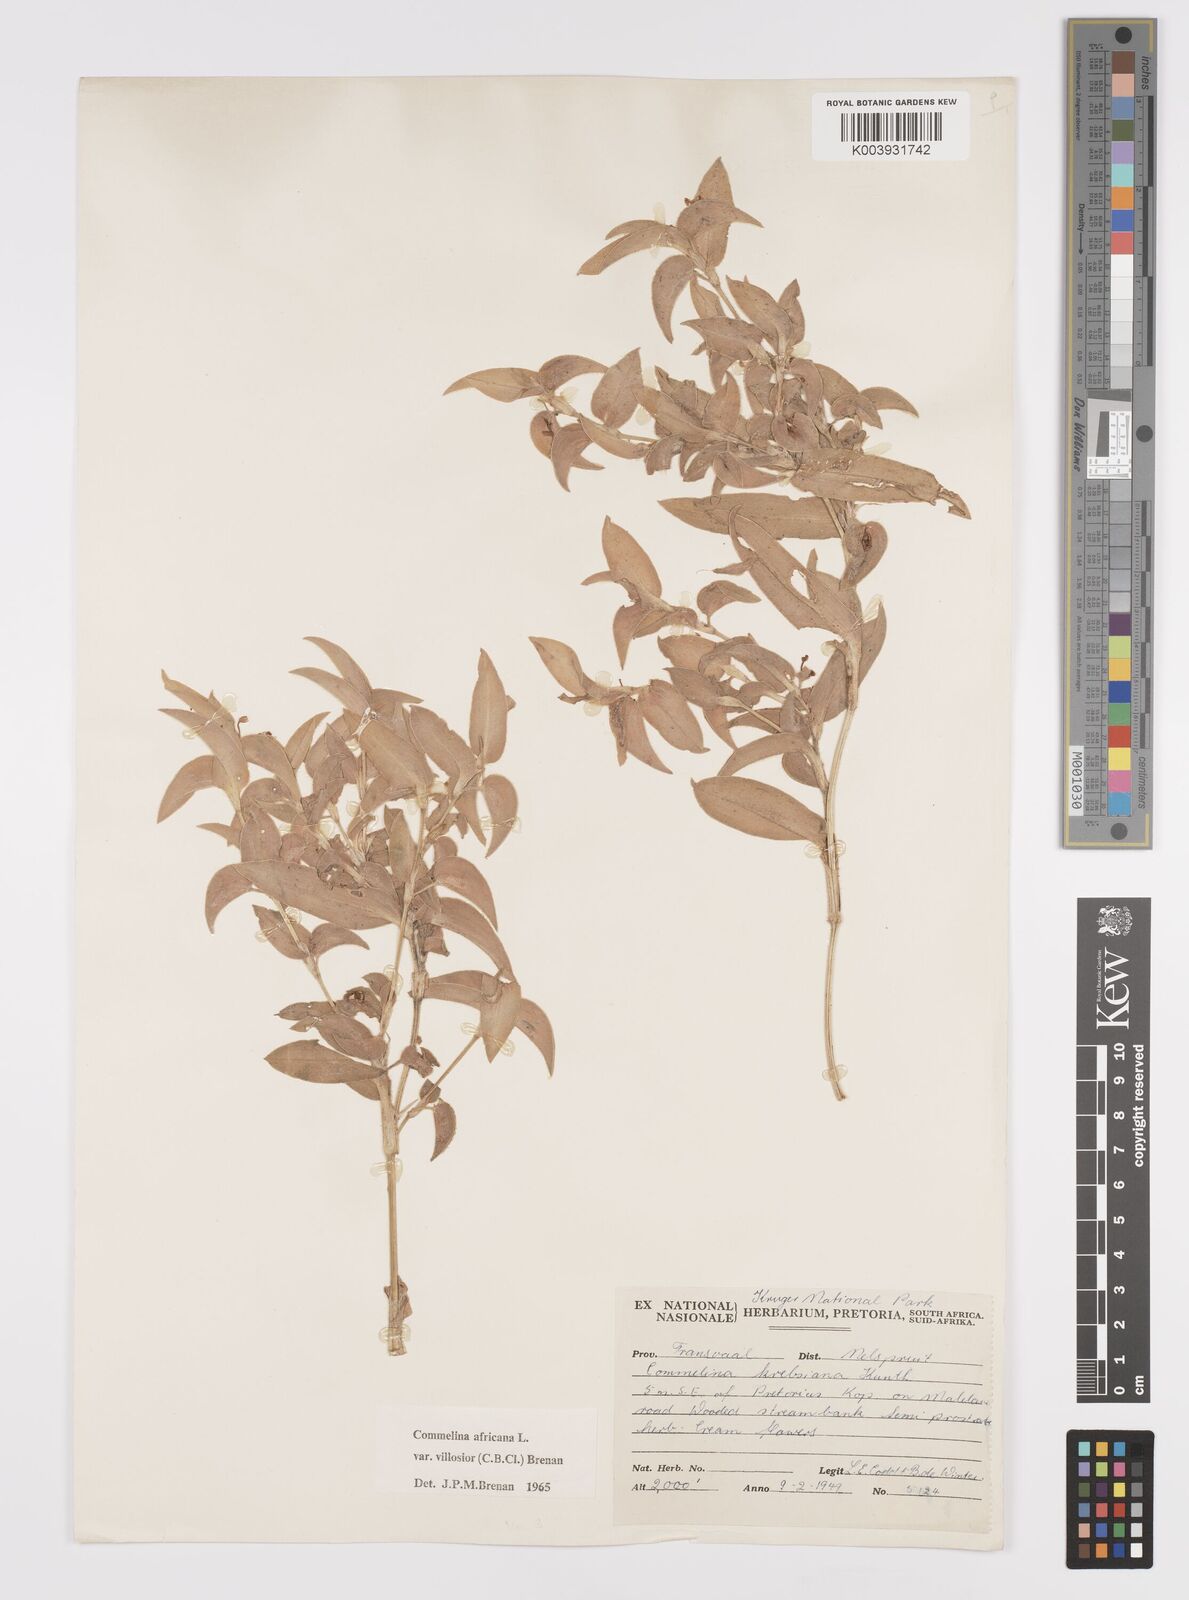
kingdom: Plantae
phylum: Tracheophyta
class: Liliopsida
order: Commelinales
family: Commelinaceae
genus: Commelina
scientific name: Commelina africana
